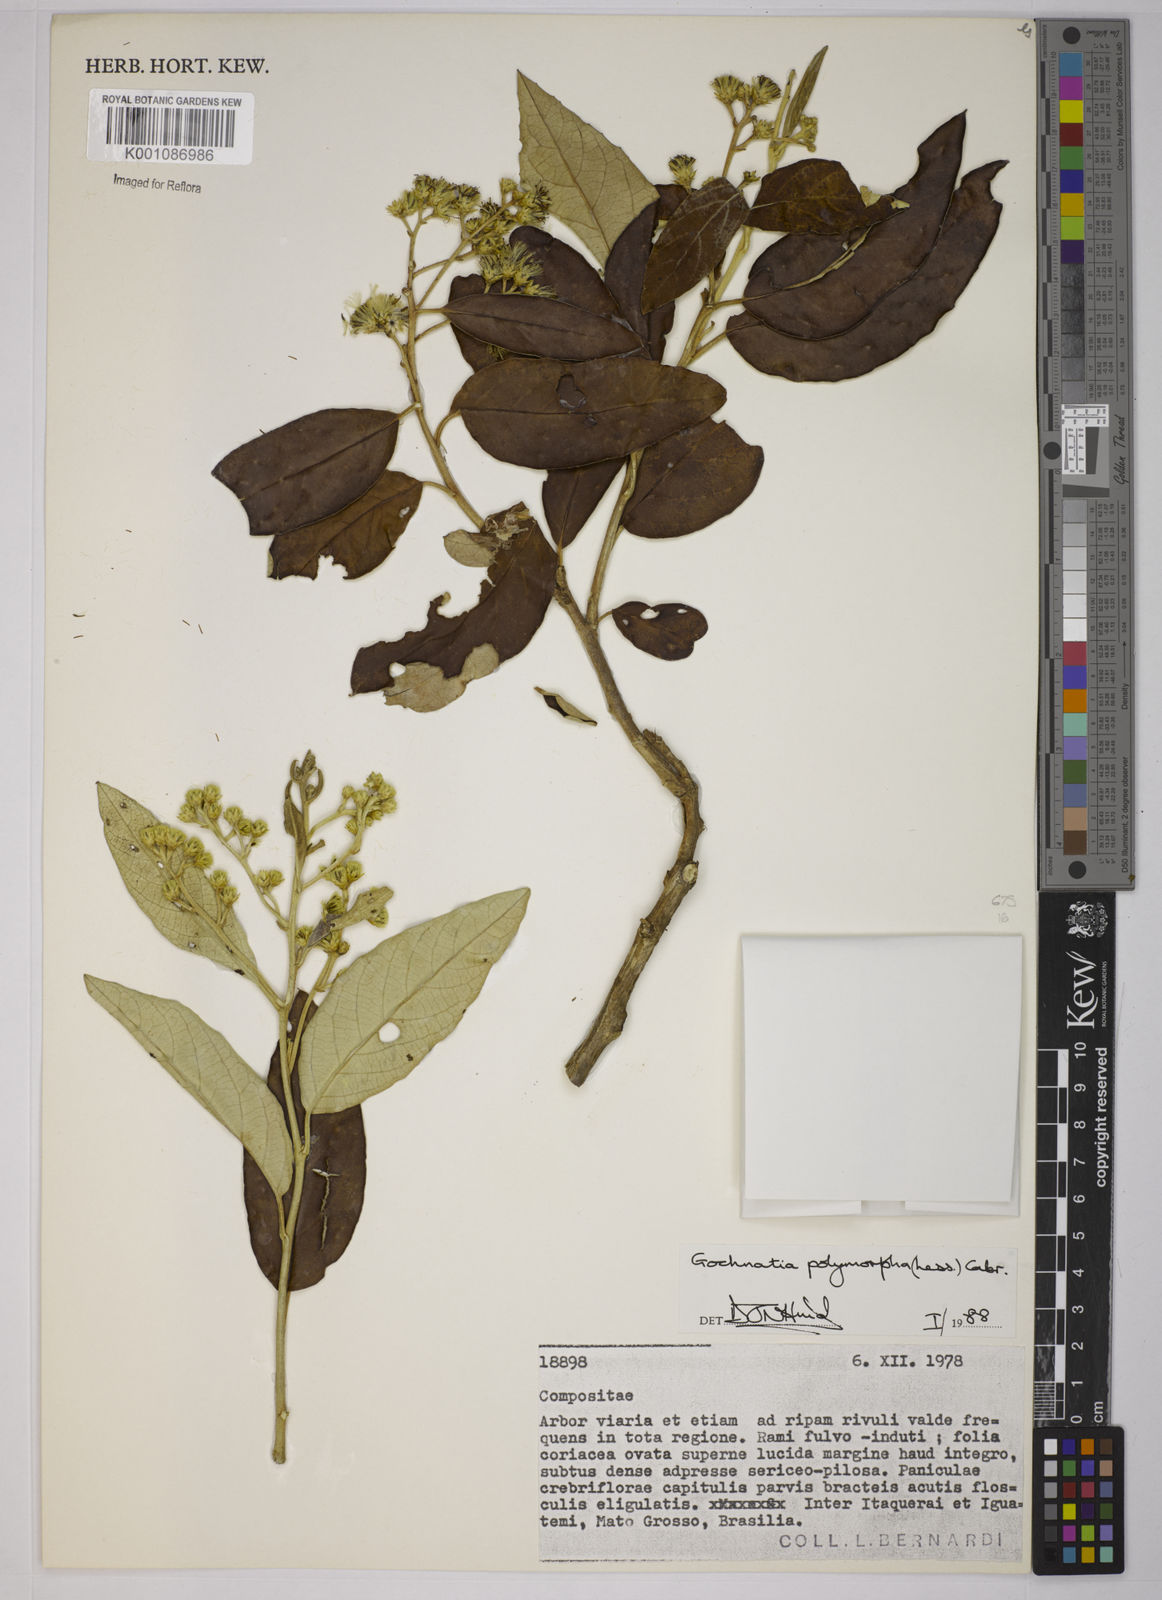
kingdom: Plantae
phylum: Tracheophyta
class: Magnoliopsida
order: Asterales
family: Asteraceae
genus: Moquiniastrum
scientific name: Moquiniastrum polymorphum
